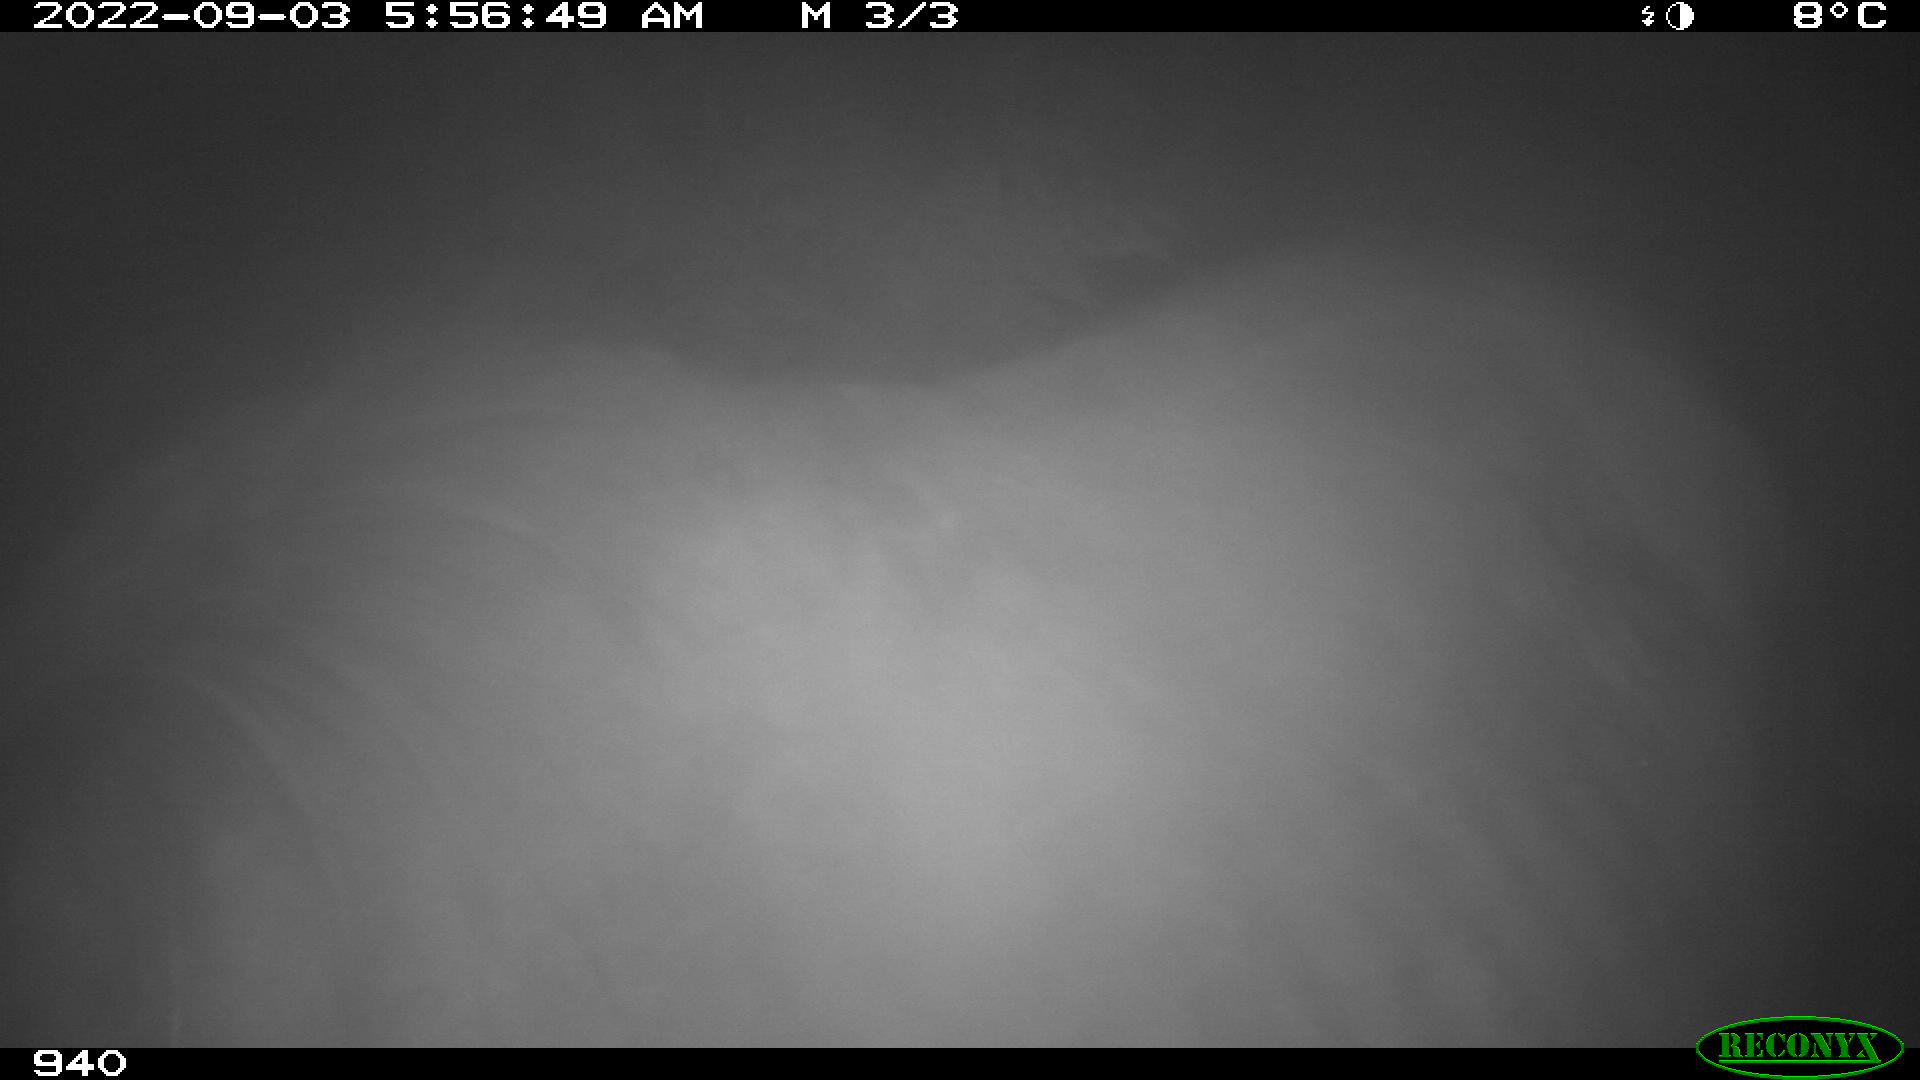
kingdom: Animalia
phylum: Chordata
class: Mammalia
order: Perissodactyla
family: Equidae
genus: Equus
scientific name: Equus caballus
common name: Horse
